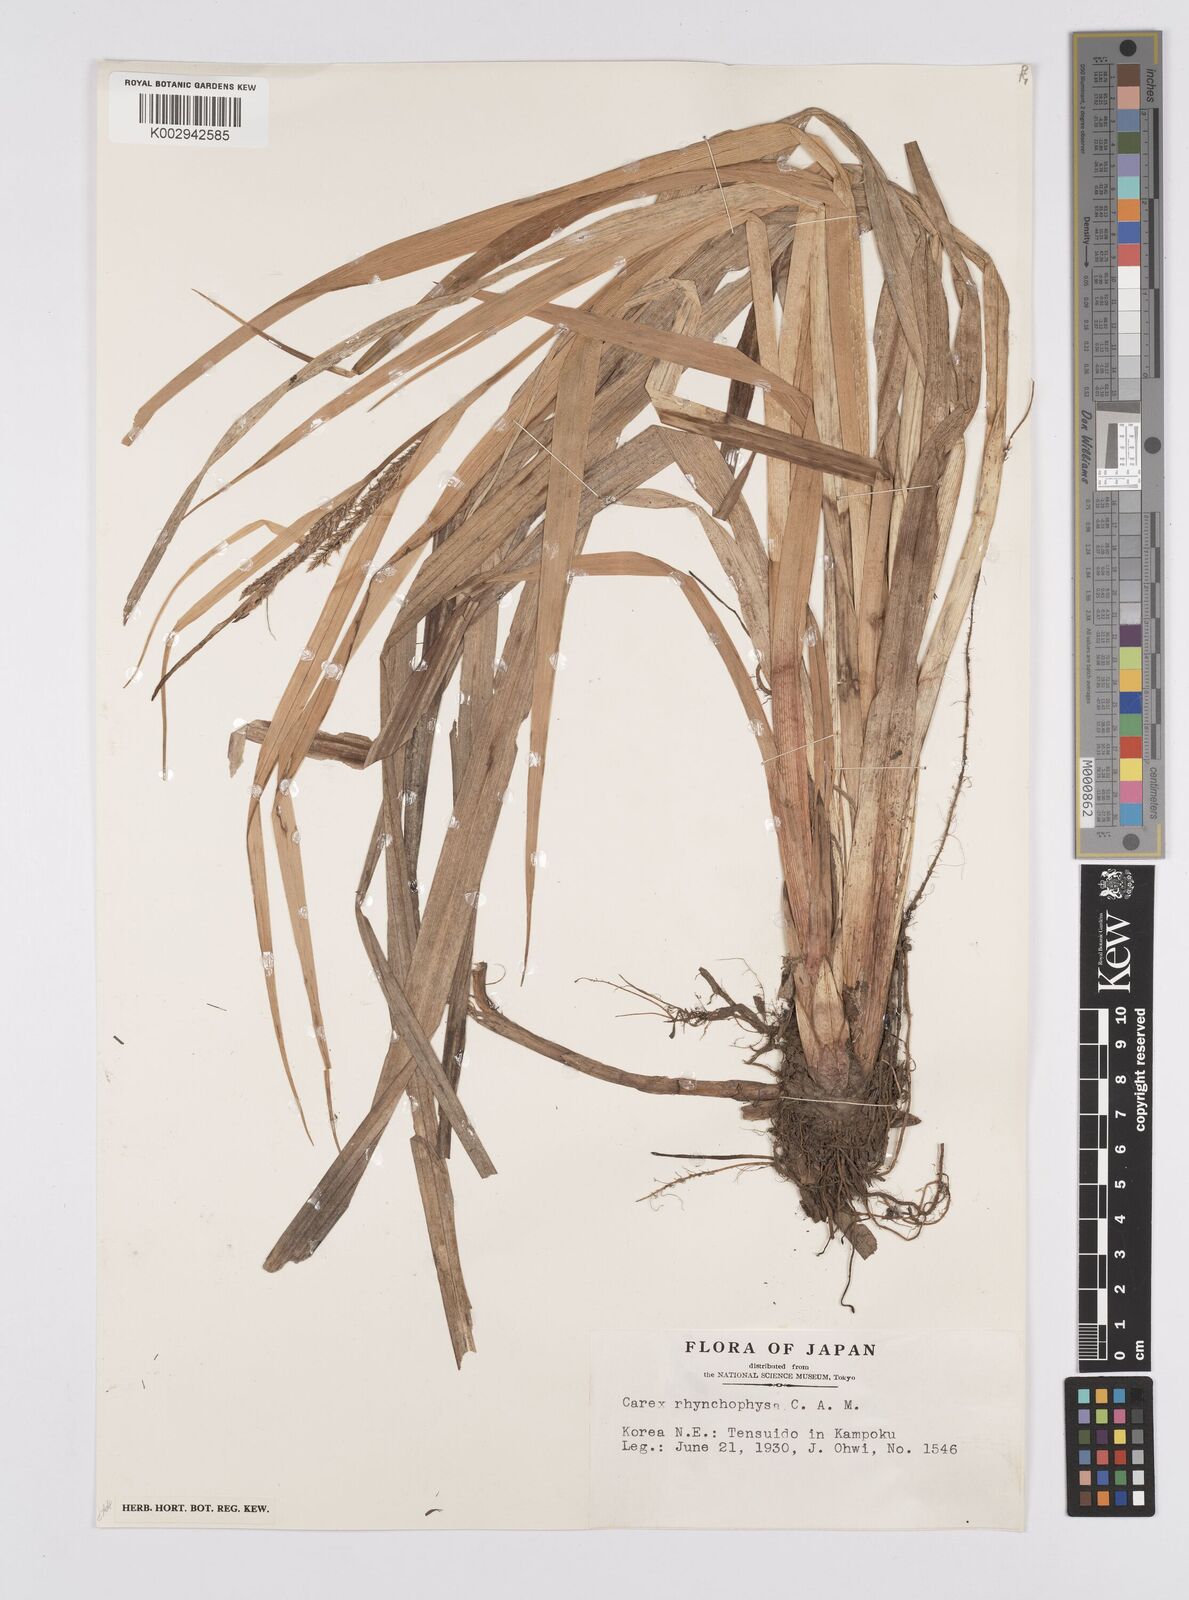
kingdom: Plantae
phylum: Tracheophyta
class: Liliopsida
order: Poales
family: Cyperaceae
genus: Carex
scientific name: Carex utriculata
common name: Beaked sedge
